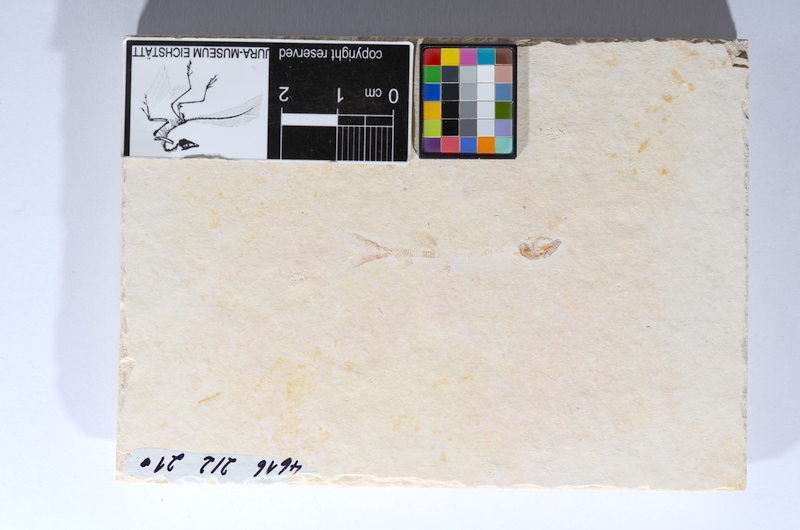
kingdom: Animalia
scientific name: Animalia
